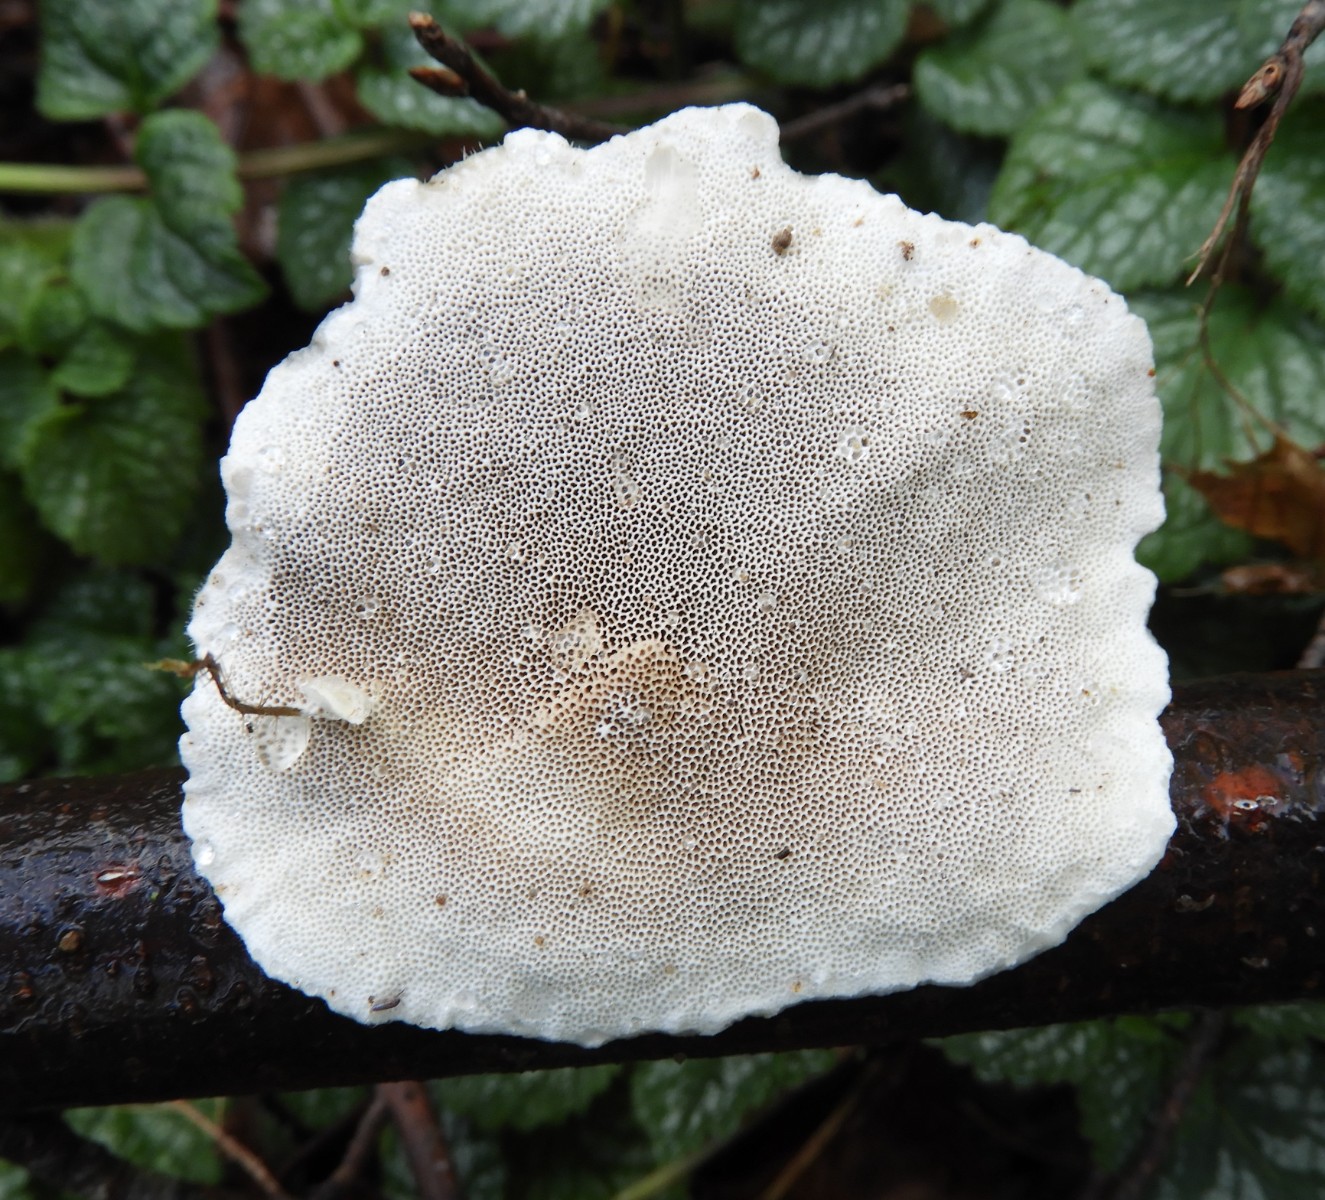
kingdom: Fungi
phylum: Basidiomycota
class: Agaricomycetes
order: Polyporales
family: Polyporaceae
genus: Trametes
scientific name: Trametes hirsuta
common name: håret læderporesvamp
